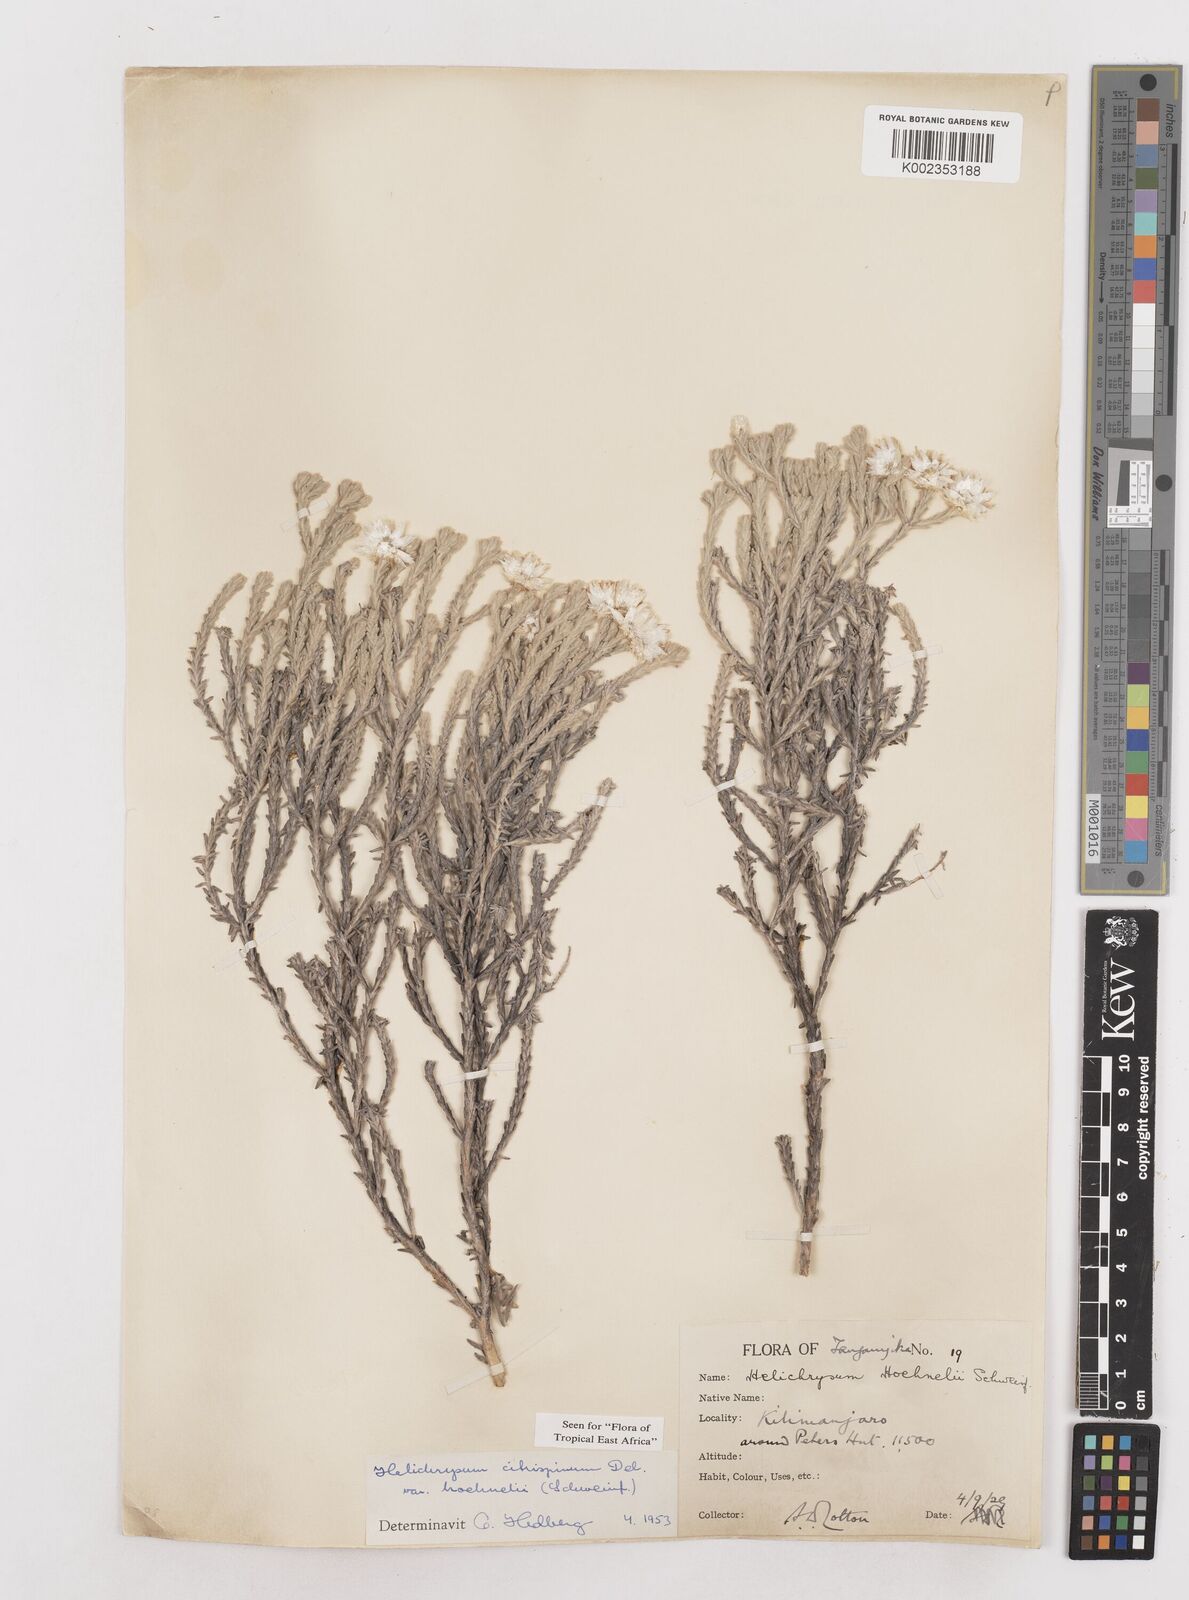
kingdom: Plantae
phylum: Tracheophyta
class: Magnoliopsida
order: Asterales
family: Asteraceae
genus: Helichrysum
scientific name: Helichrysum citrispinum
